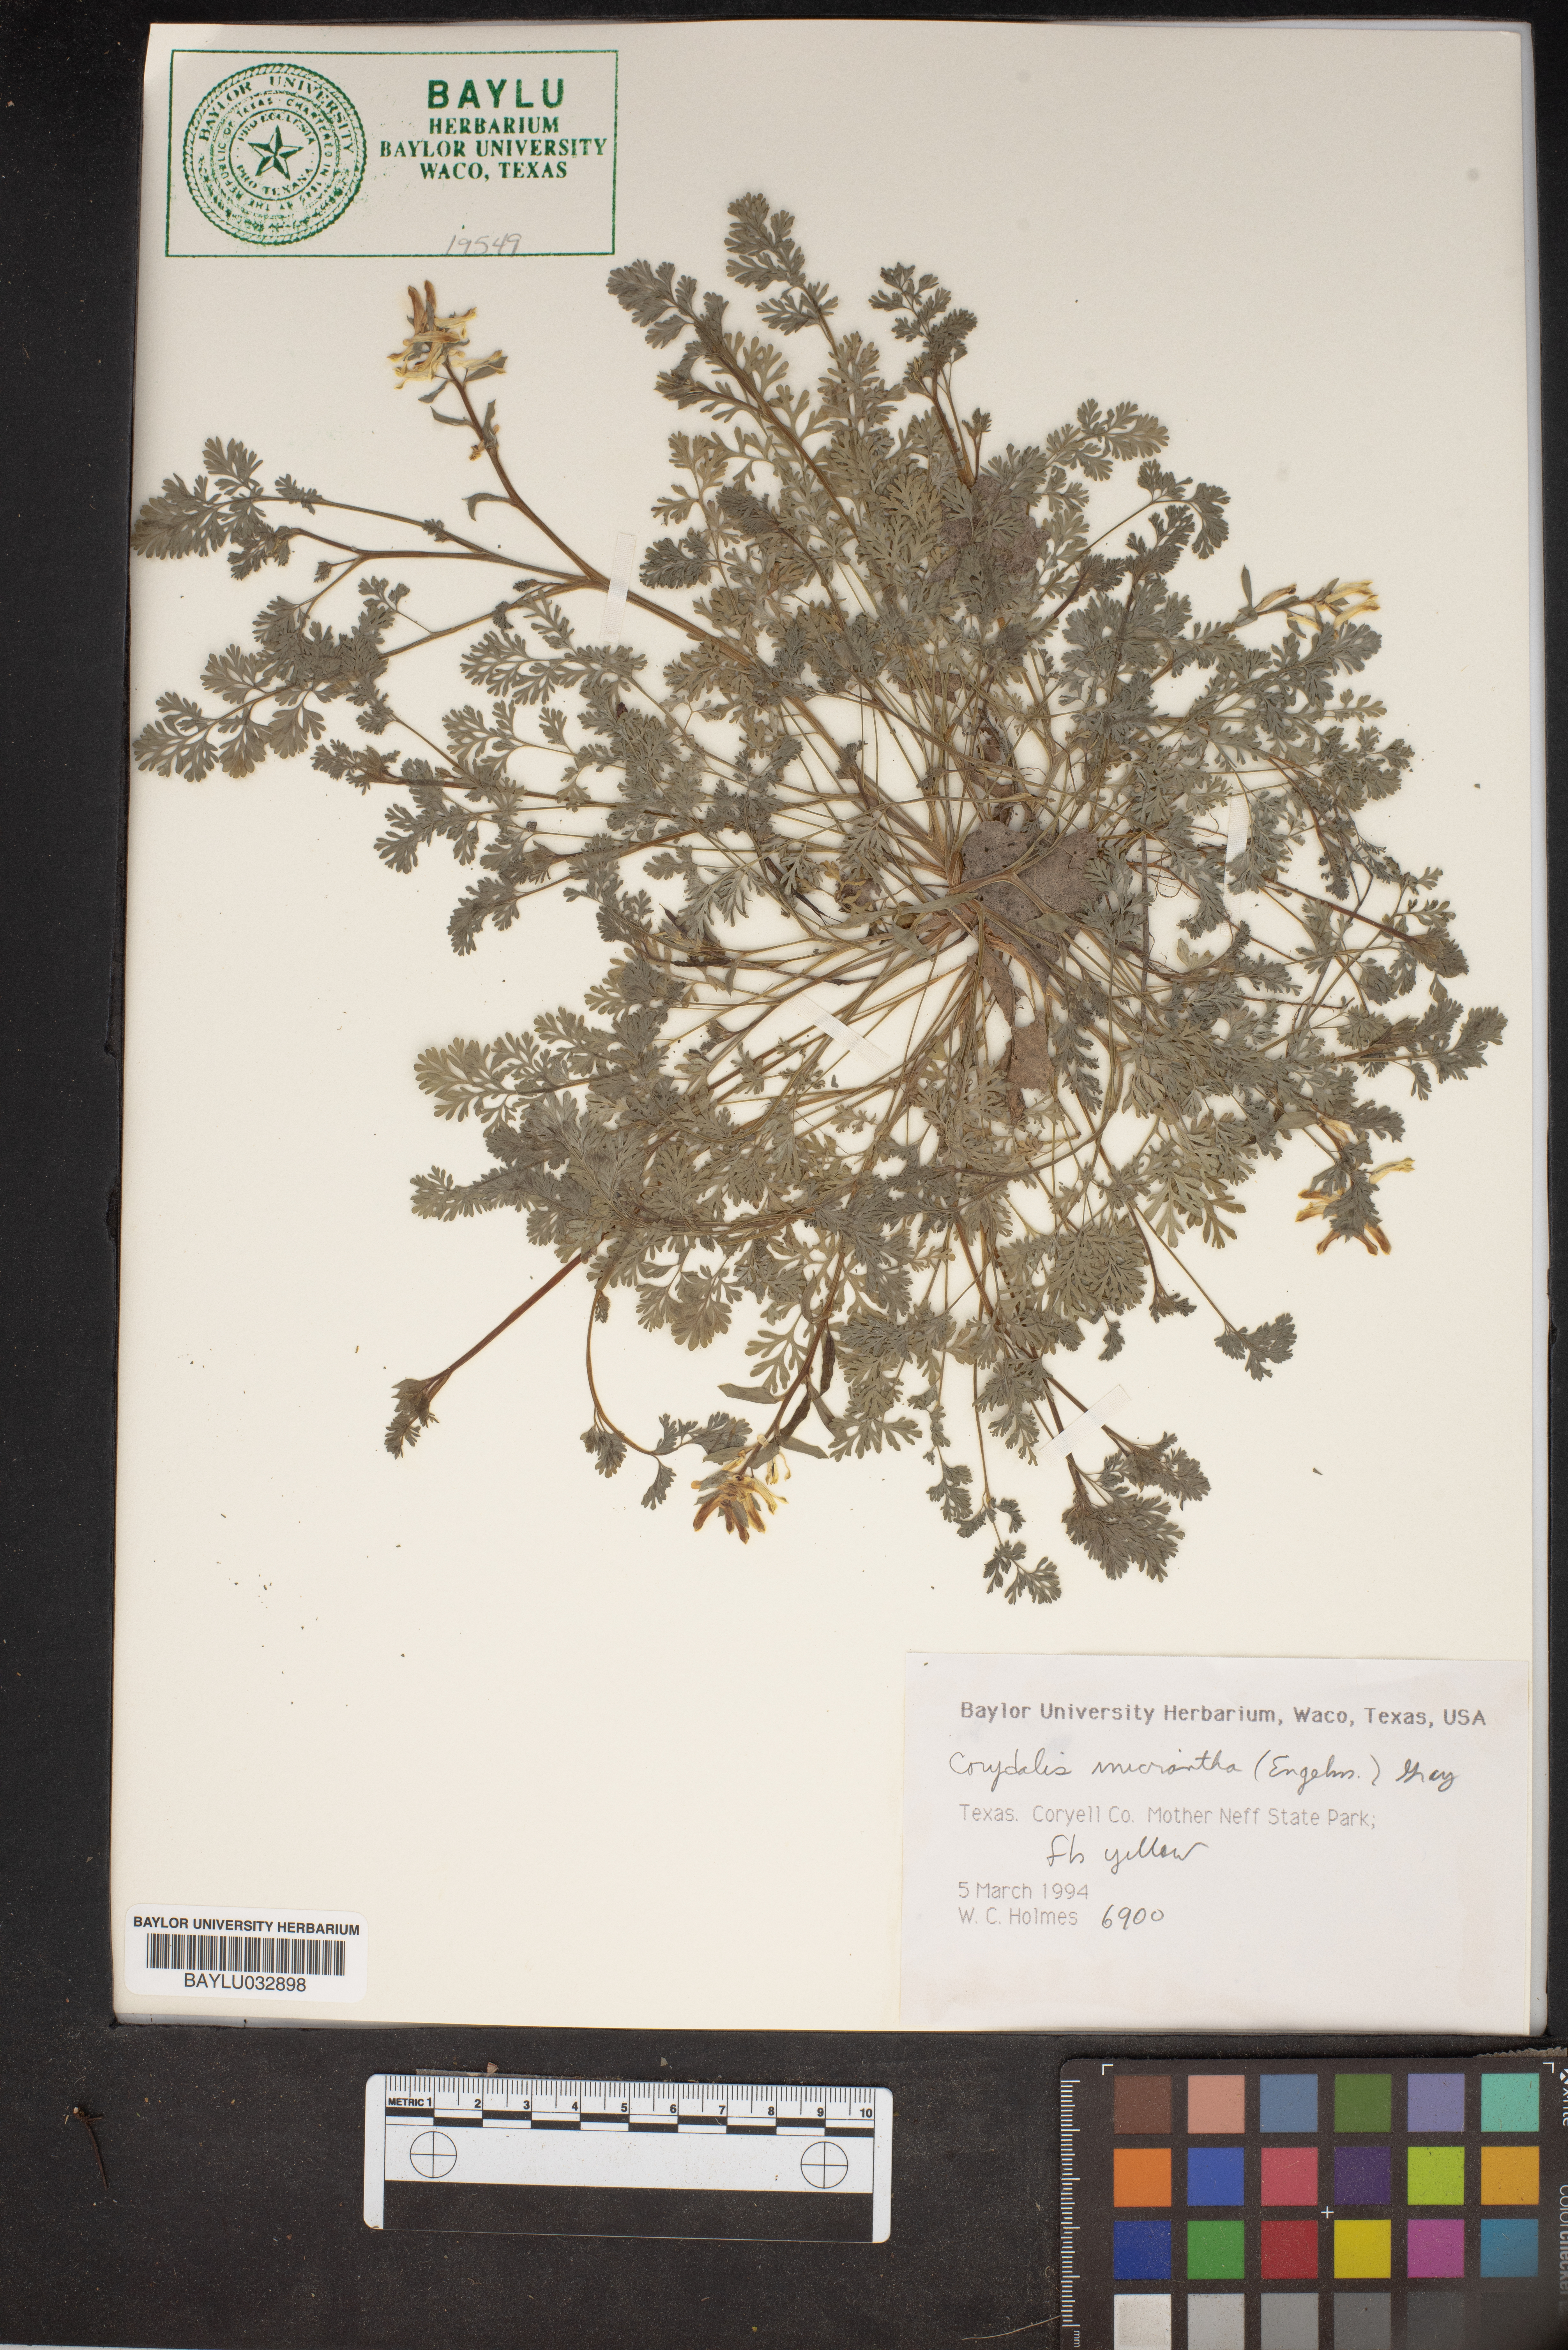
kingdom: Plantae
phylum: Tracheophyta
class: Magnoliopsida
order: Ranunculales
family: Papaveraceae
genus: Corydalis
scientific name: Corydalis micrantha
